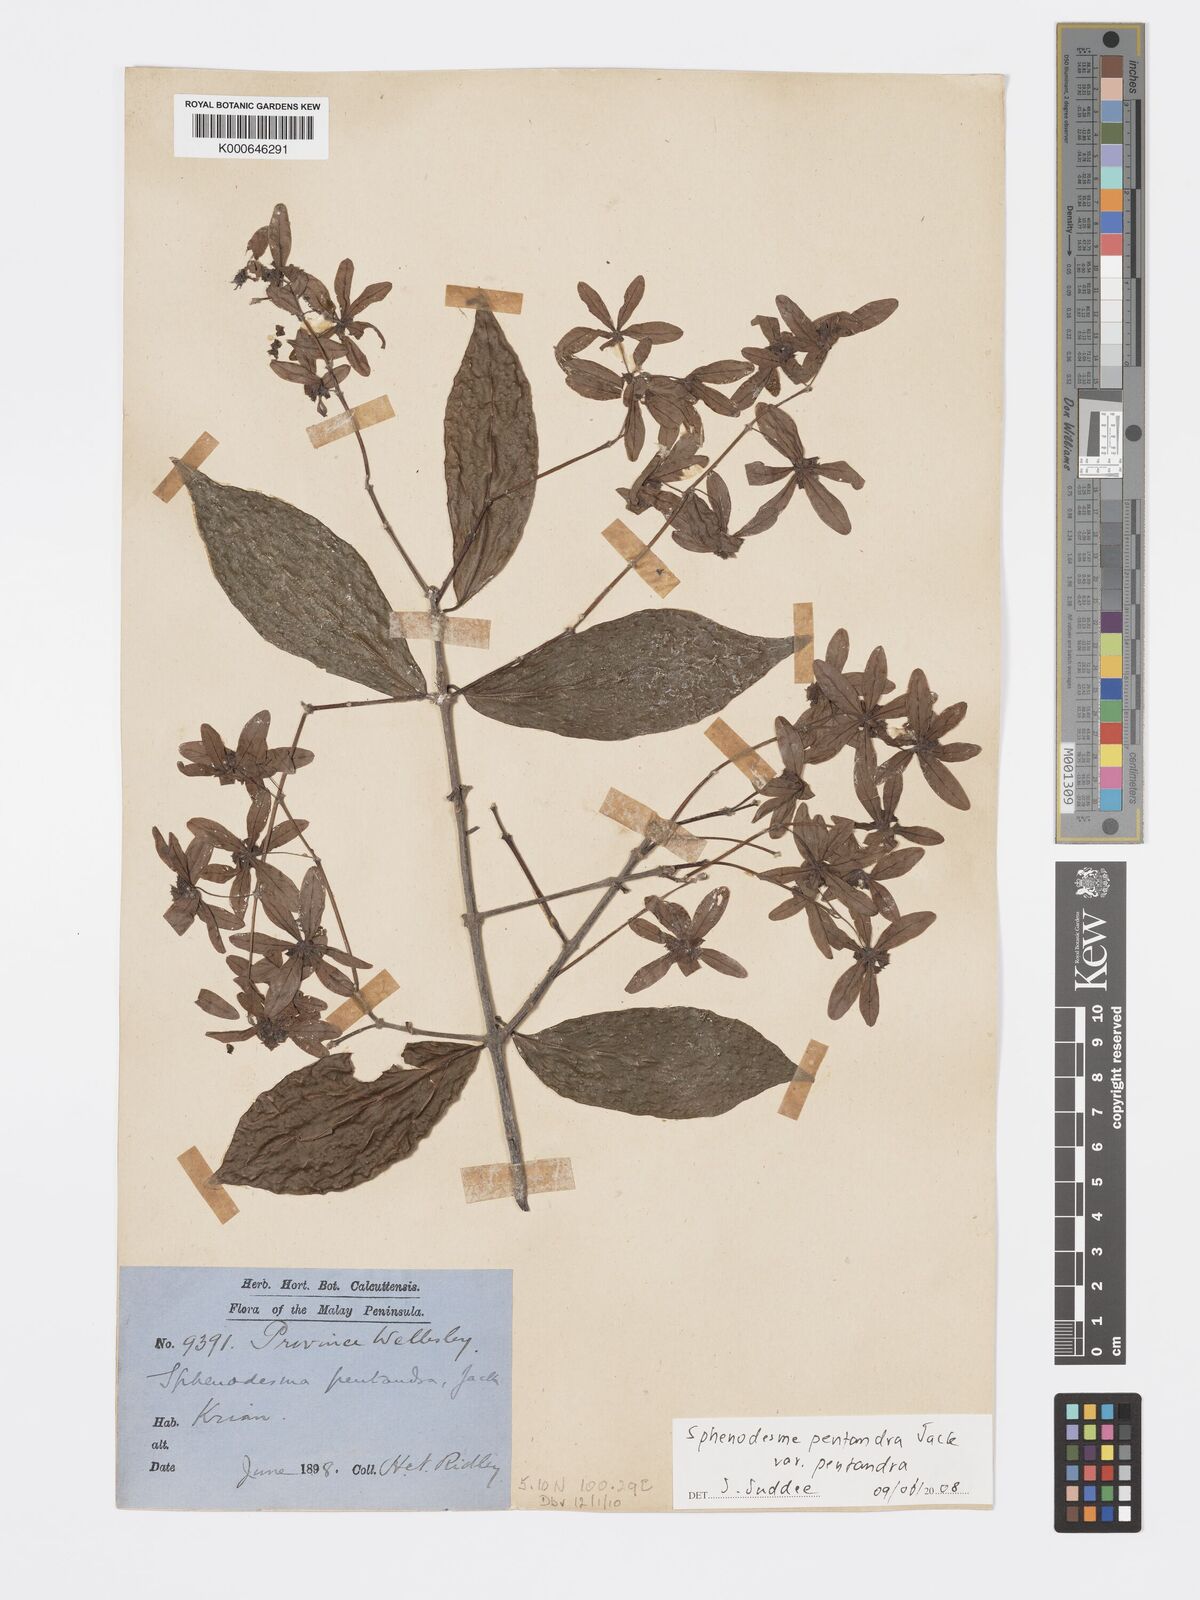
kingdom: Plantae
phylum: Tracheophyta
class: Magnoliopsida
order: Lamiales
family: Lamiaceae
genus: Sphenodesme
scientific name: Sphenodesme pentandra
